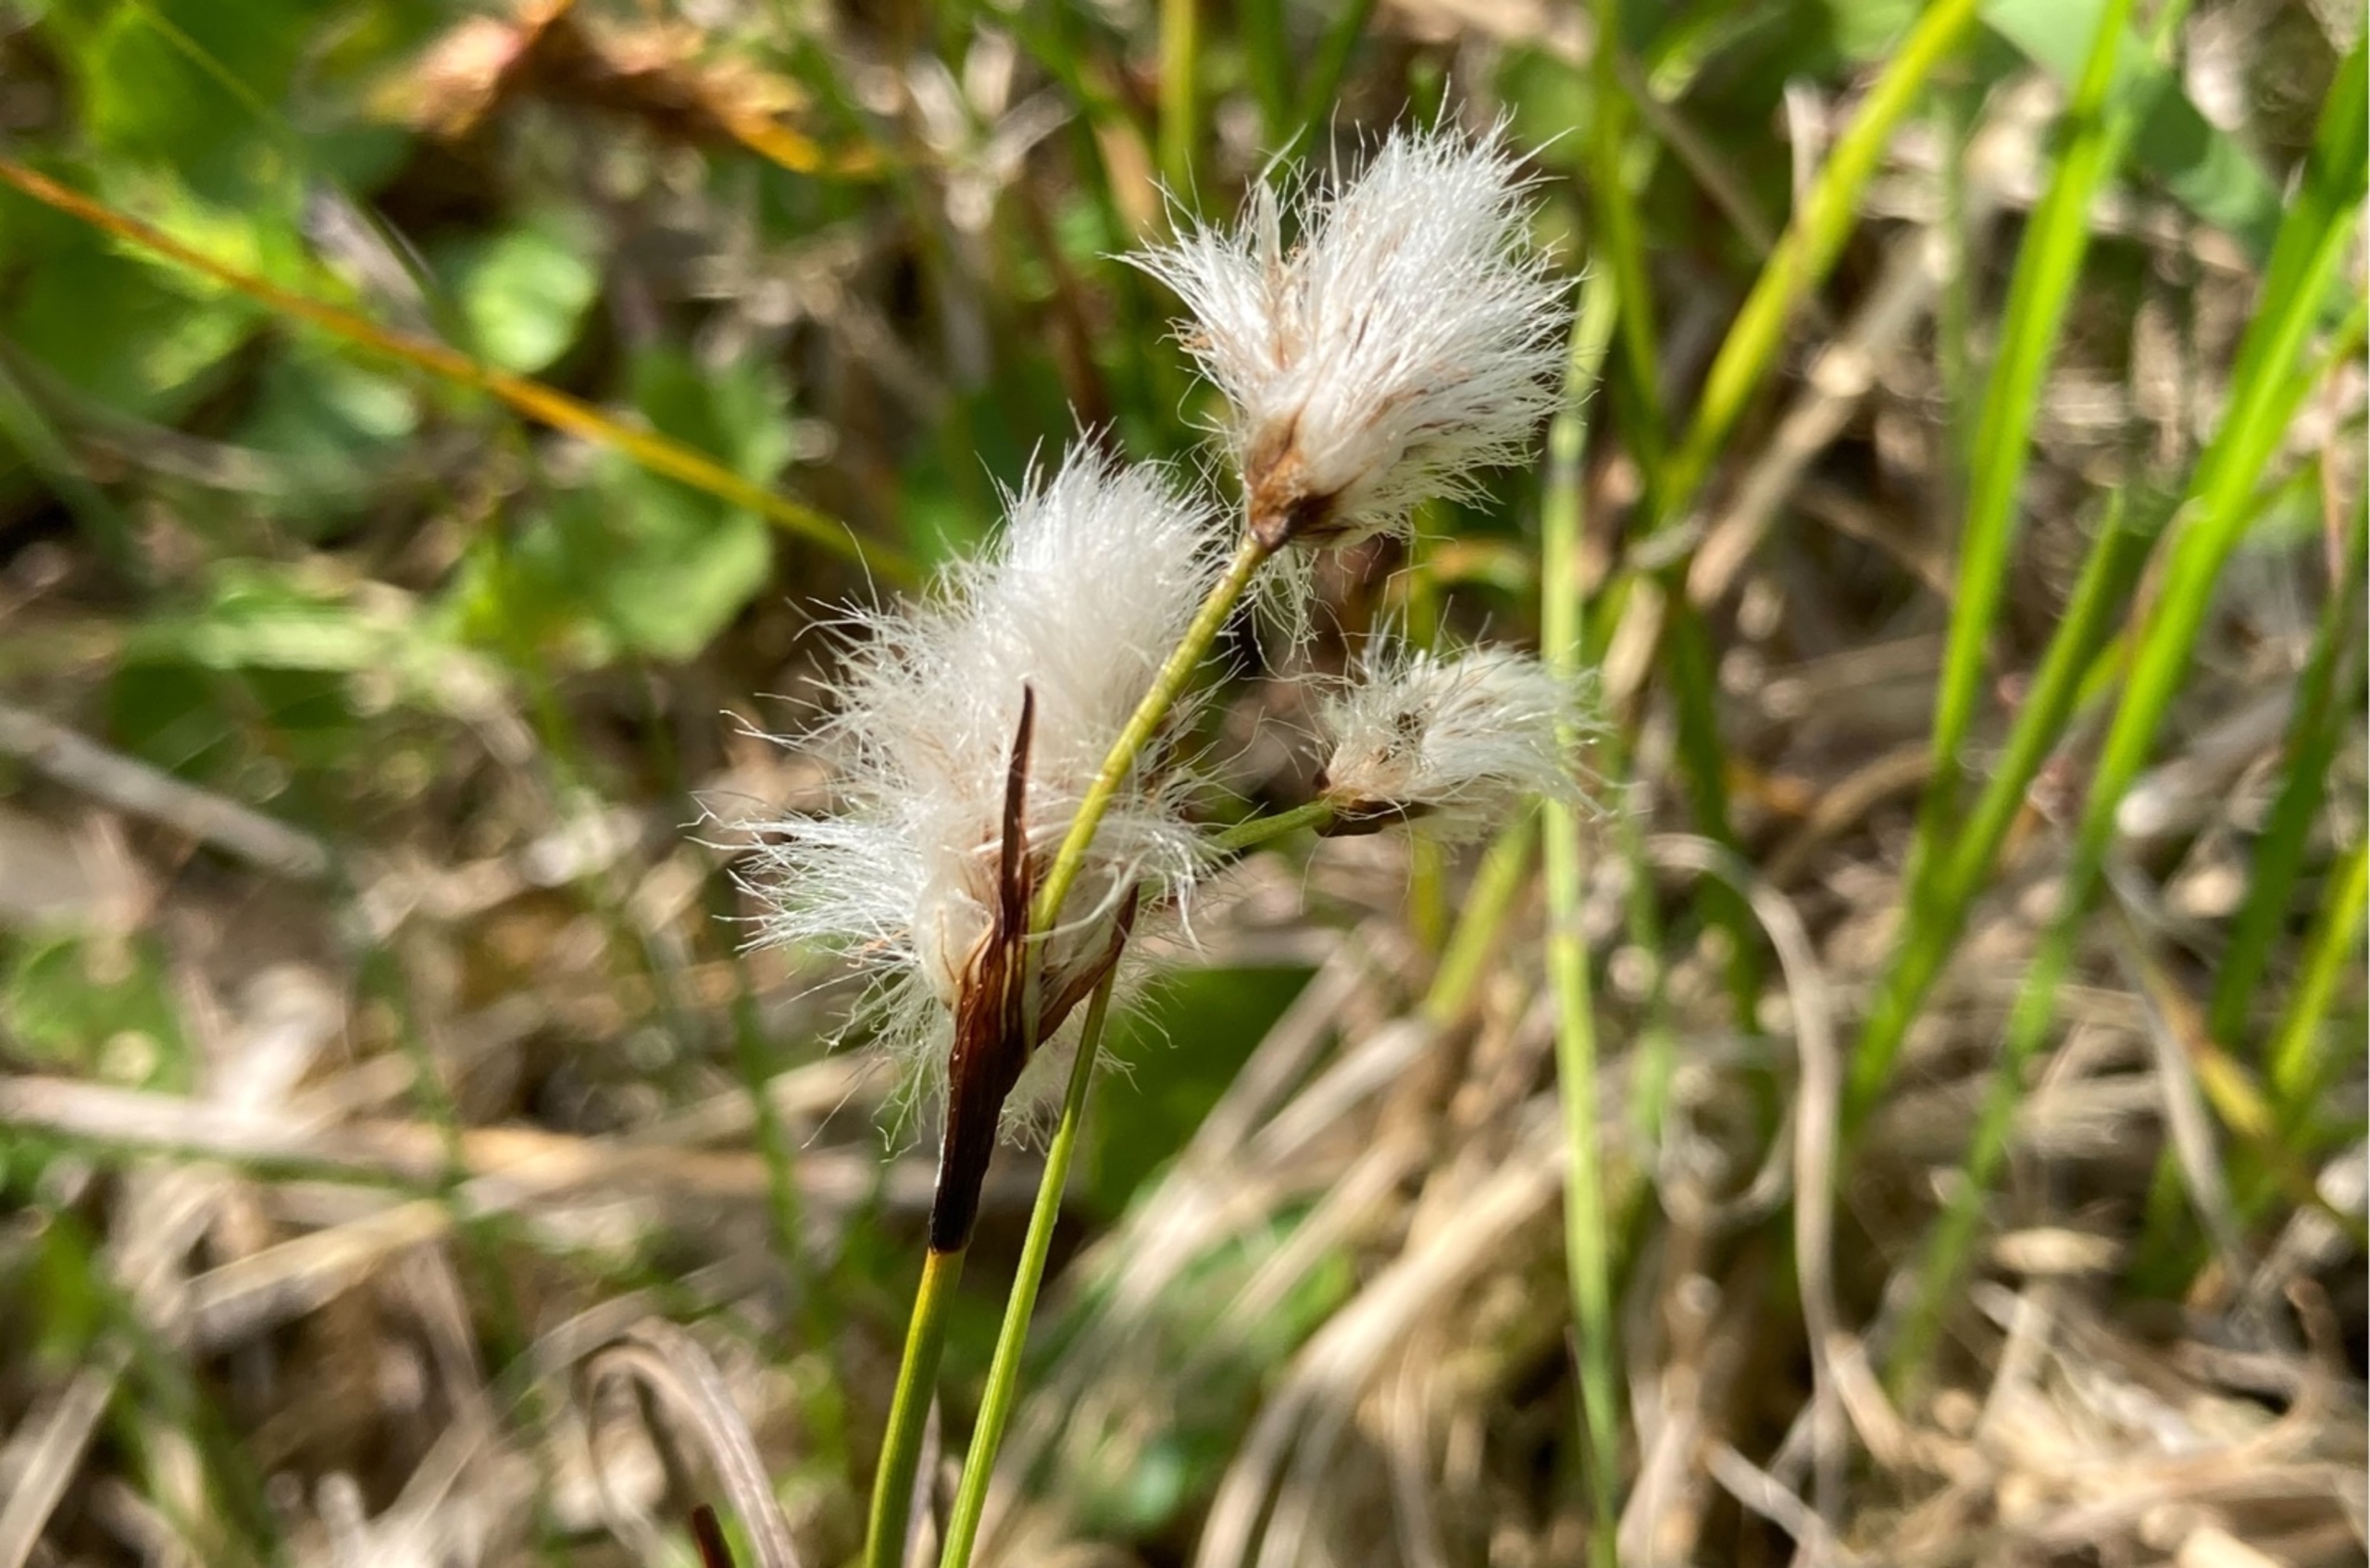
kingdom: Plantae
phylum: Tracheophyta
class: Liliopsida
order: Poales
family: Cyperaceae
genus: Eriophorum
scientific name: Eriophorum angustifolium
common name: Smalbladet kæruld
